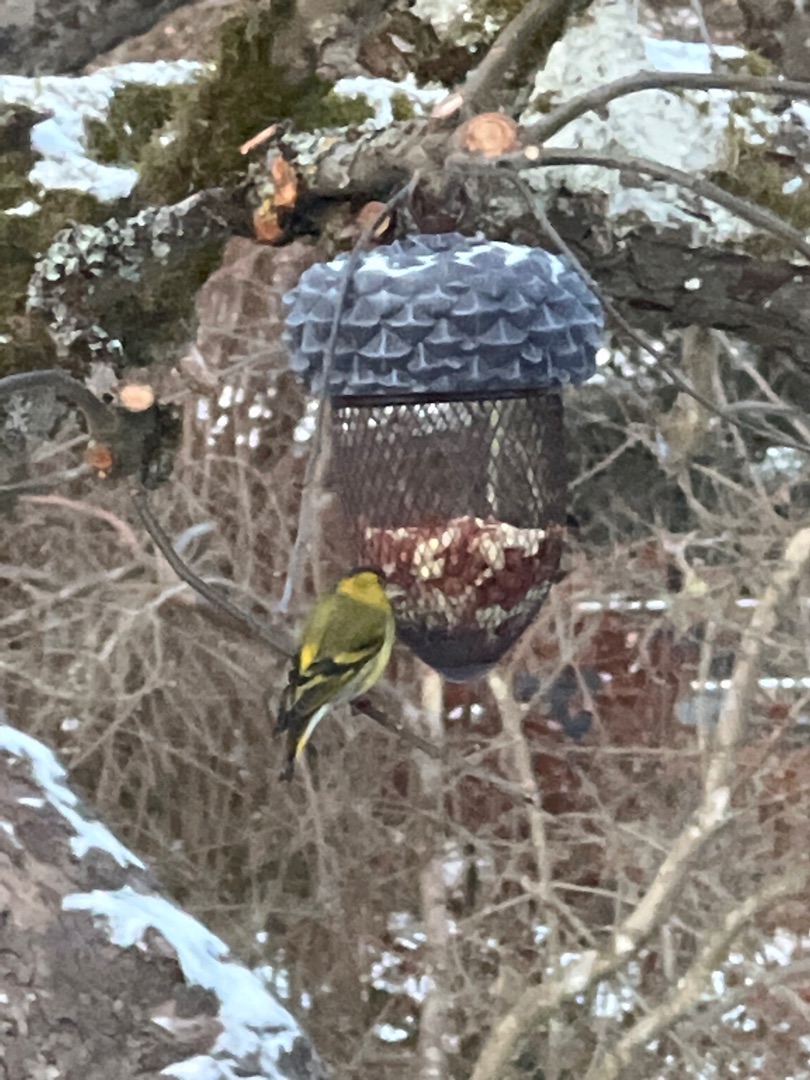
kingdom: Animalia
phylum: Chordata
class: Aves
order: Passeriformes
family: Fringillidae
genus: Spinus
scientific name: Spinus spinus
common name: Grønsisken
